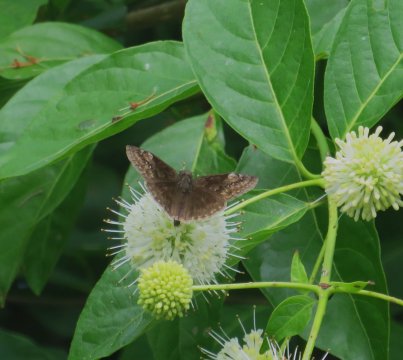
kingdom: Animalia
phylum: Arthropoda
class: Insecta
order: Lepidoptera
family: Hesperiidae
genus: Gesta
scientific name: Gesta
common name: Horace's Duskywing
